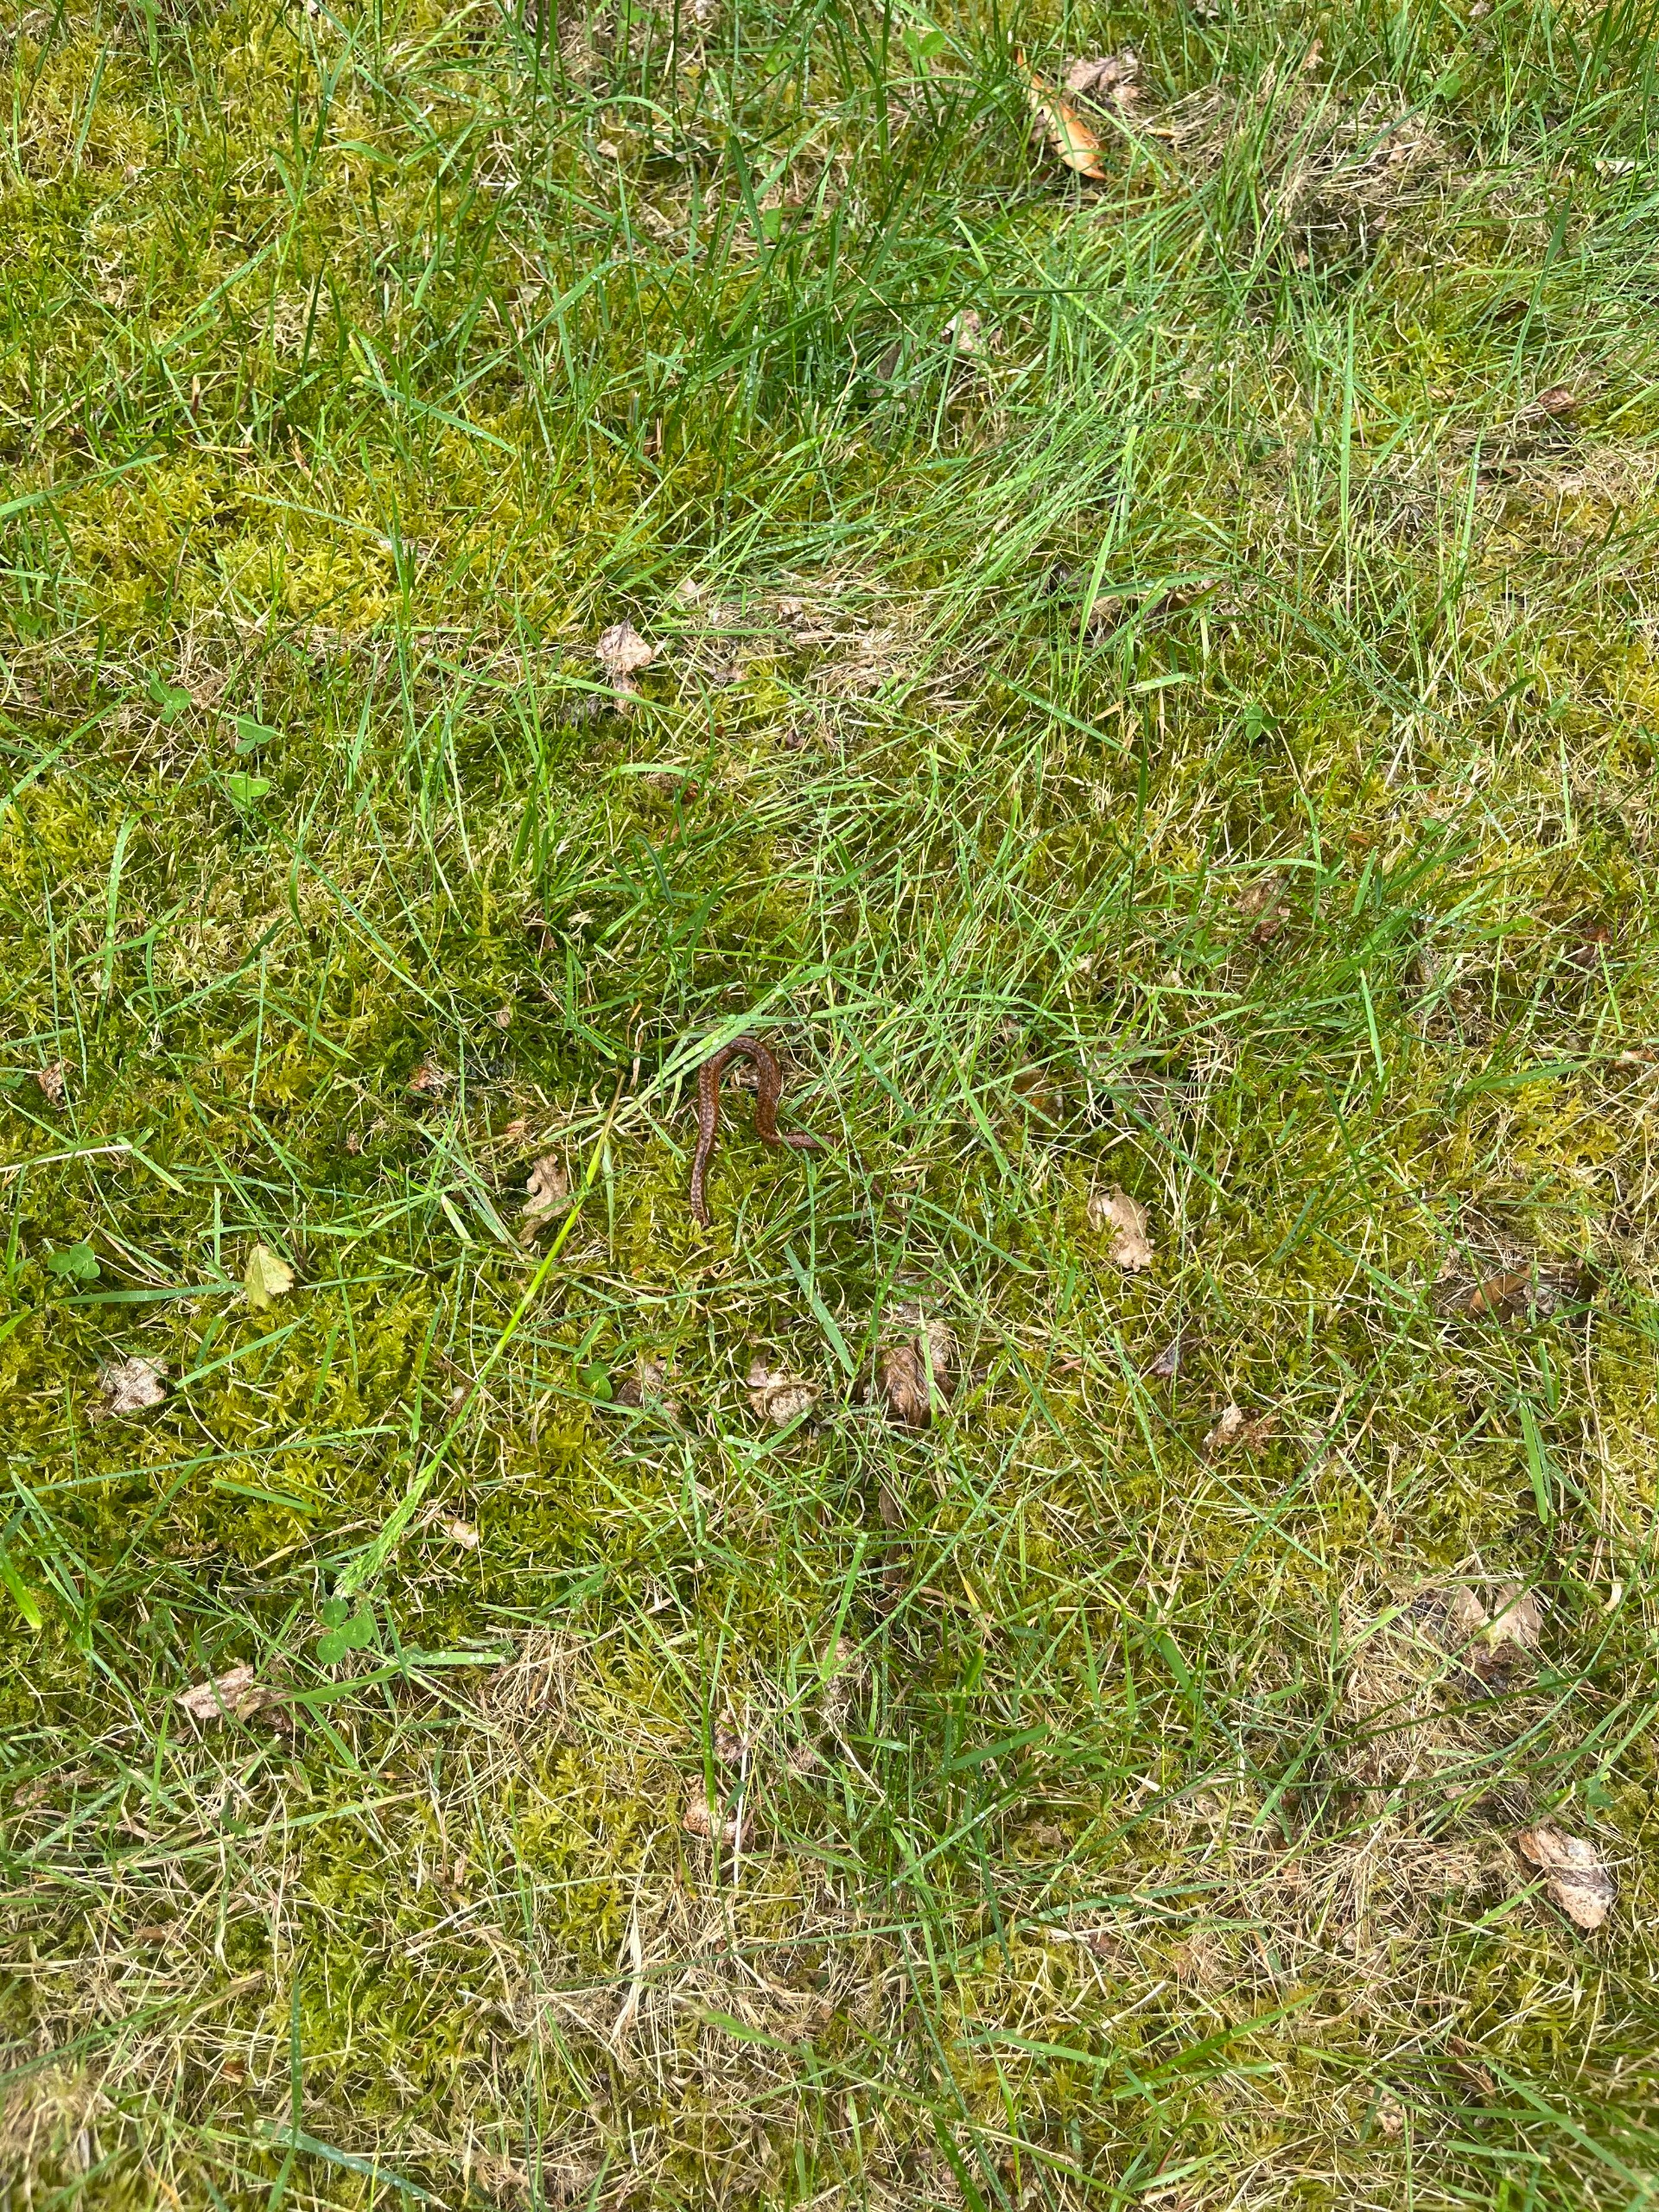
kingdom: Animalia
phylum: Chordata
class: Squamata
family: Viperidae
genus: Vipera
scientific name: Vipera berus
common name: Hugorm
